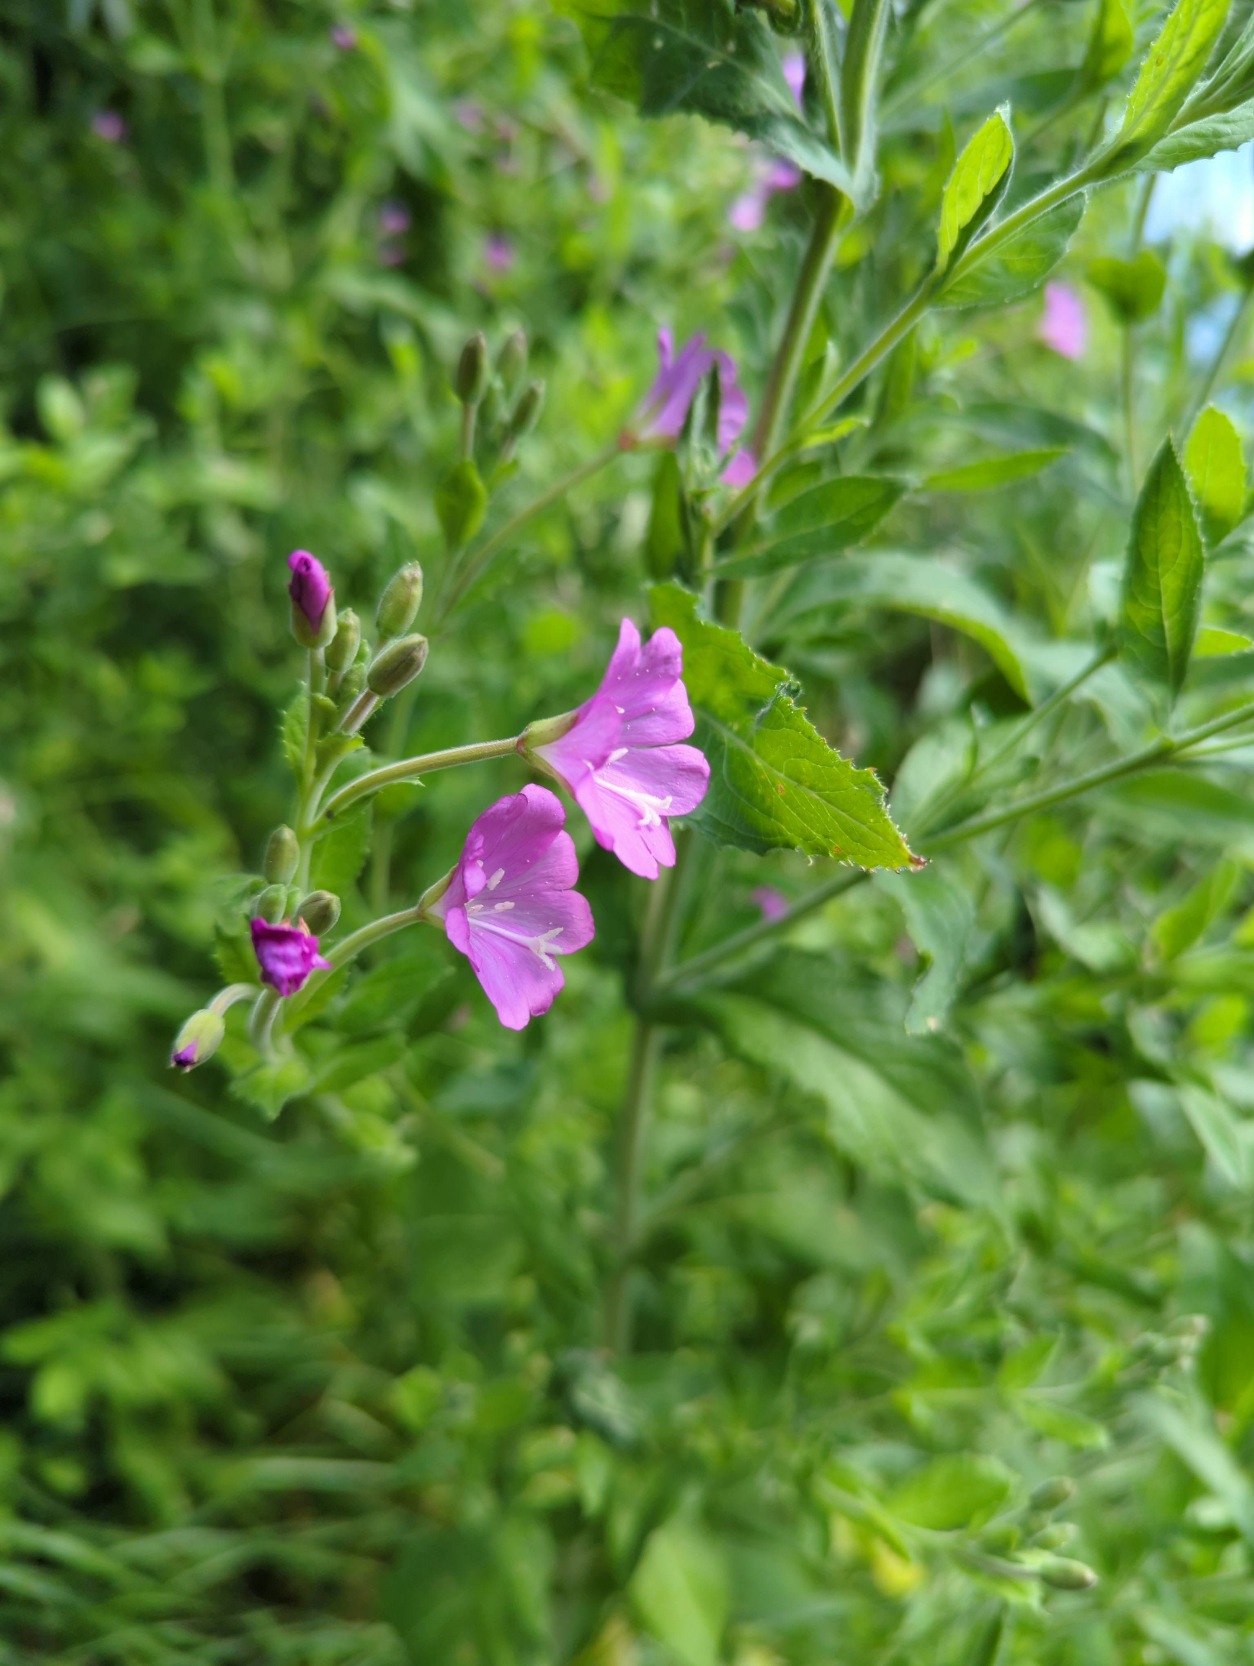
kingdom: Plantae
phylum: Tracheophyta
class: Magnoliopsida
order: Myrtales
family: Onagraceae
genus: Epilobium
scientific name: Epilobium hirsutum
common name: Lådden dueurt
